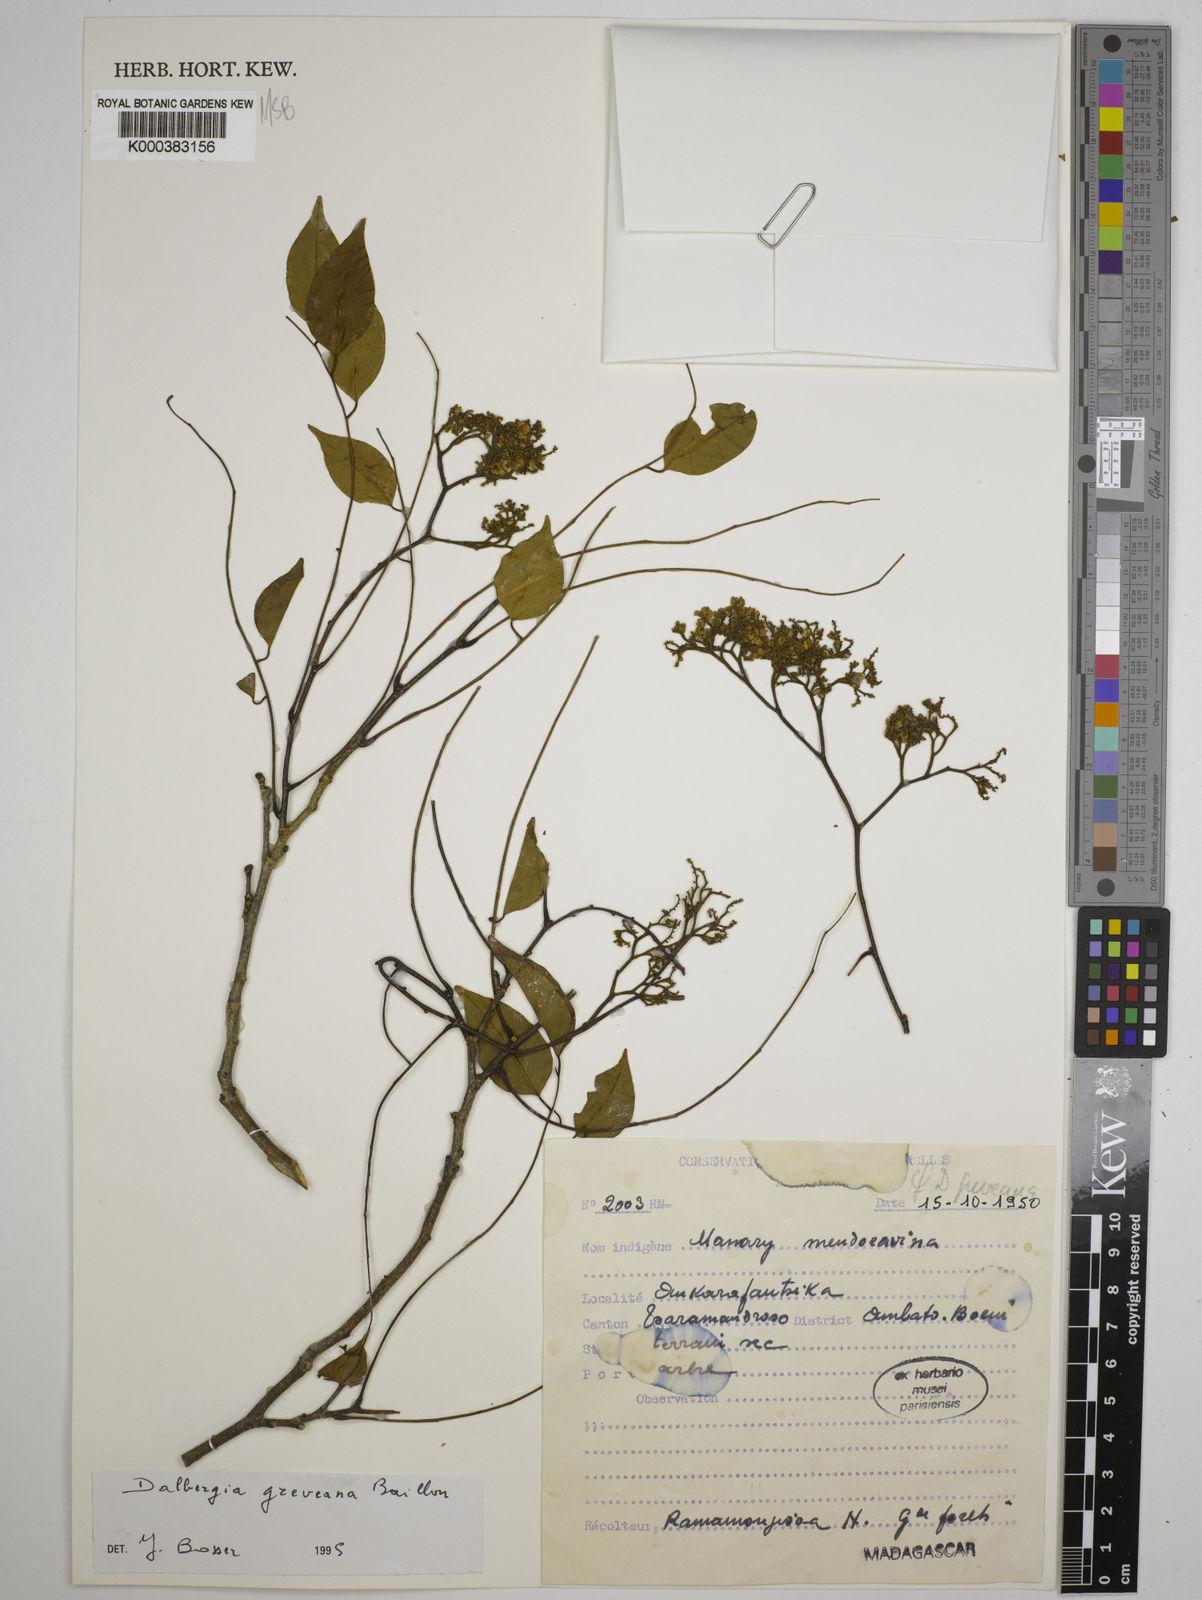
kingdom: Plantae
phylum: Tracheophyta
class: Magnoliopsida
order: Fabales
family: Fabaceae
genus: Dalbergia
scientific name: Dalbergia greveana
